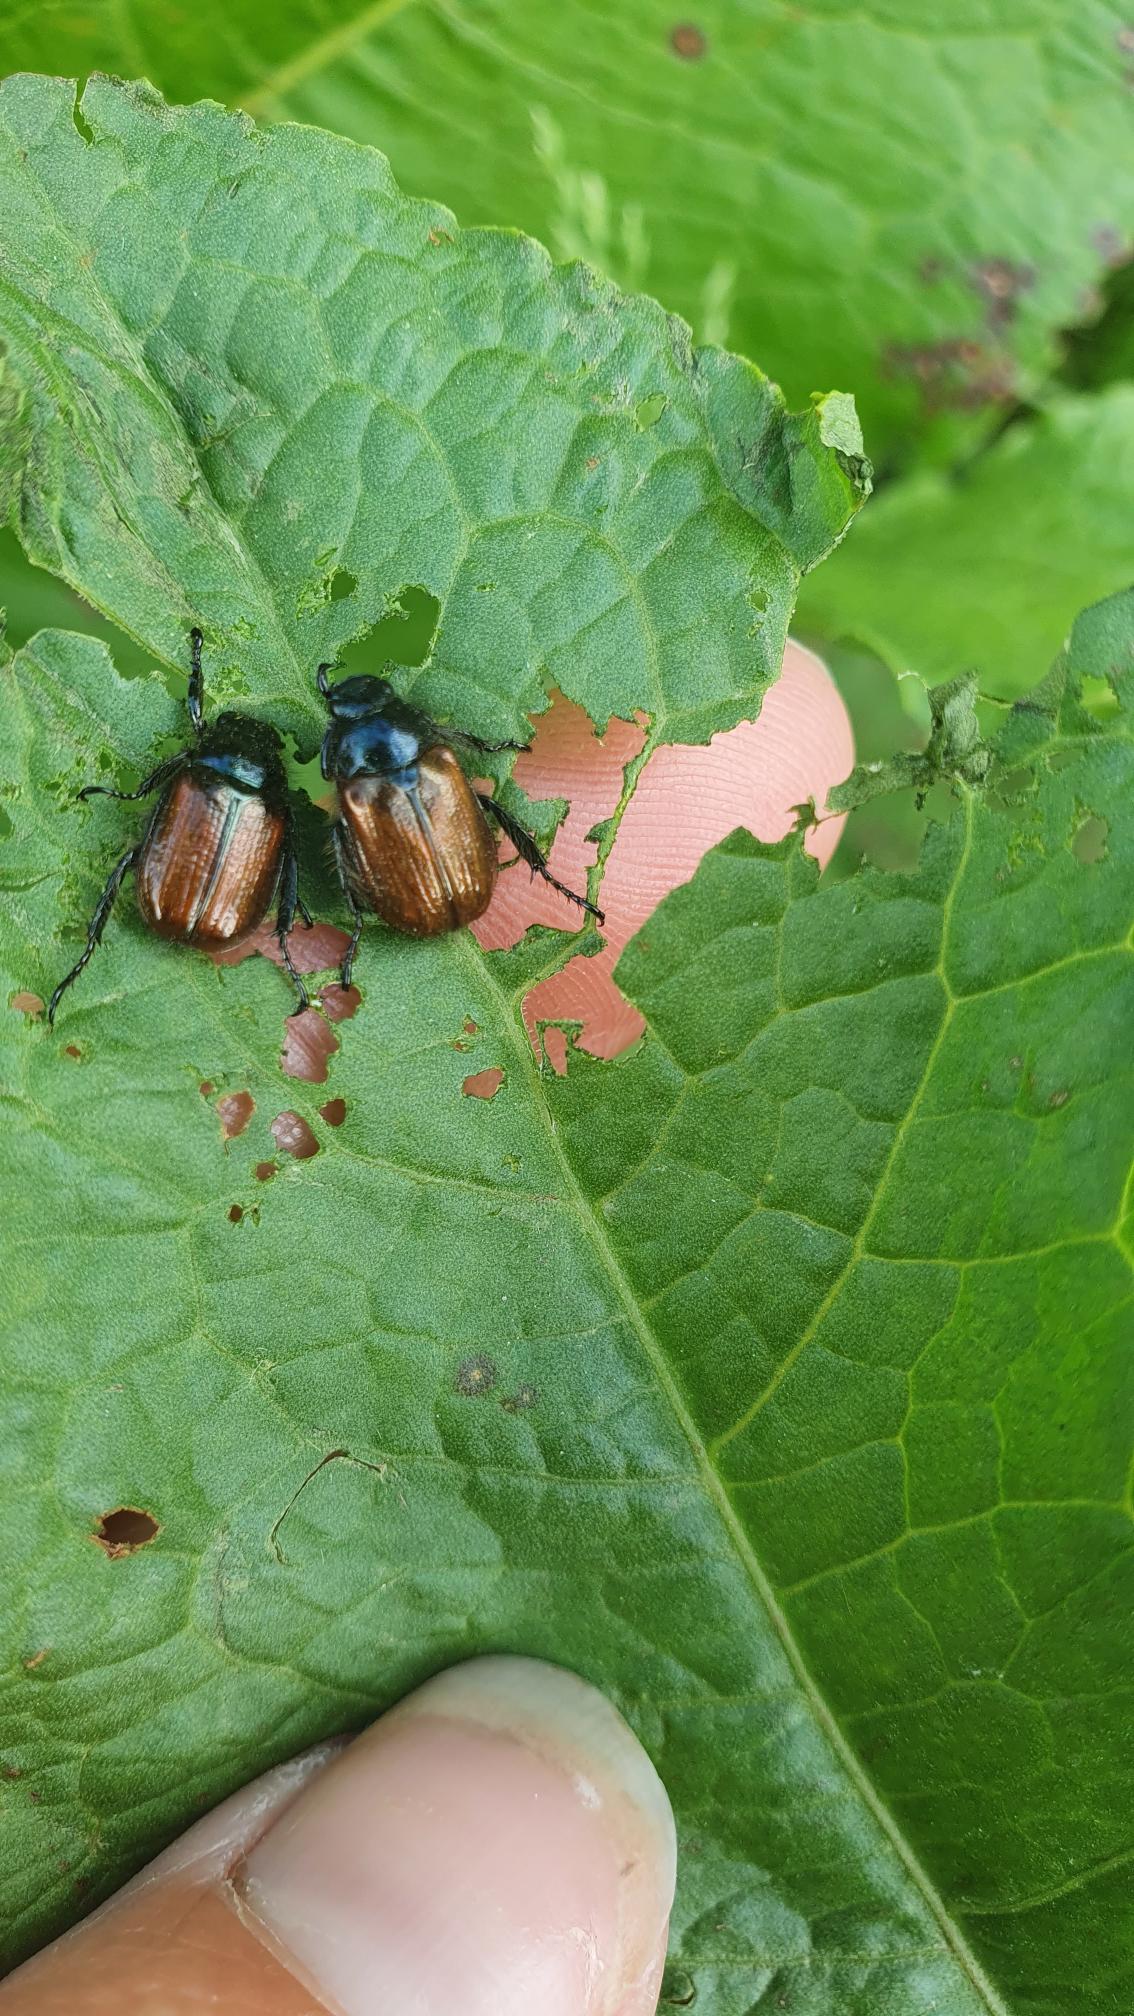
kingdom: Animalia
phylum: Arthropoda
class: Insecta
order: Coleoptera
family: Scarabaeidae
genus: Phyllopertha
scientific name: Phyllopertha horticola
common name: Gåsebille
